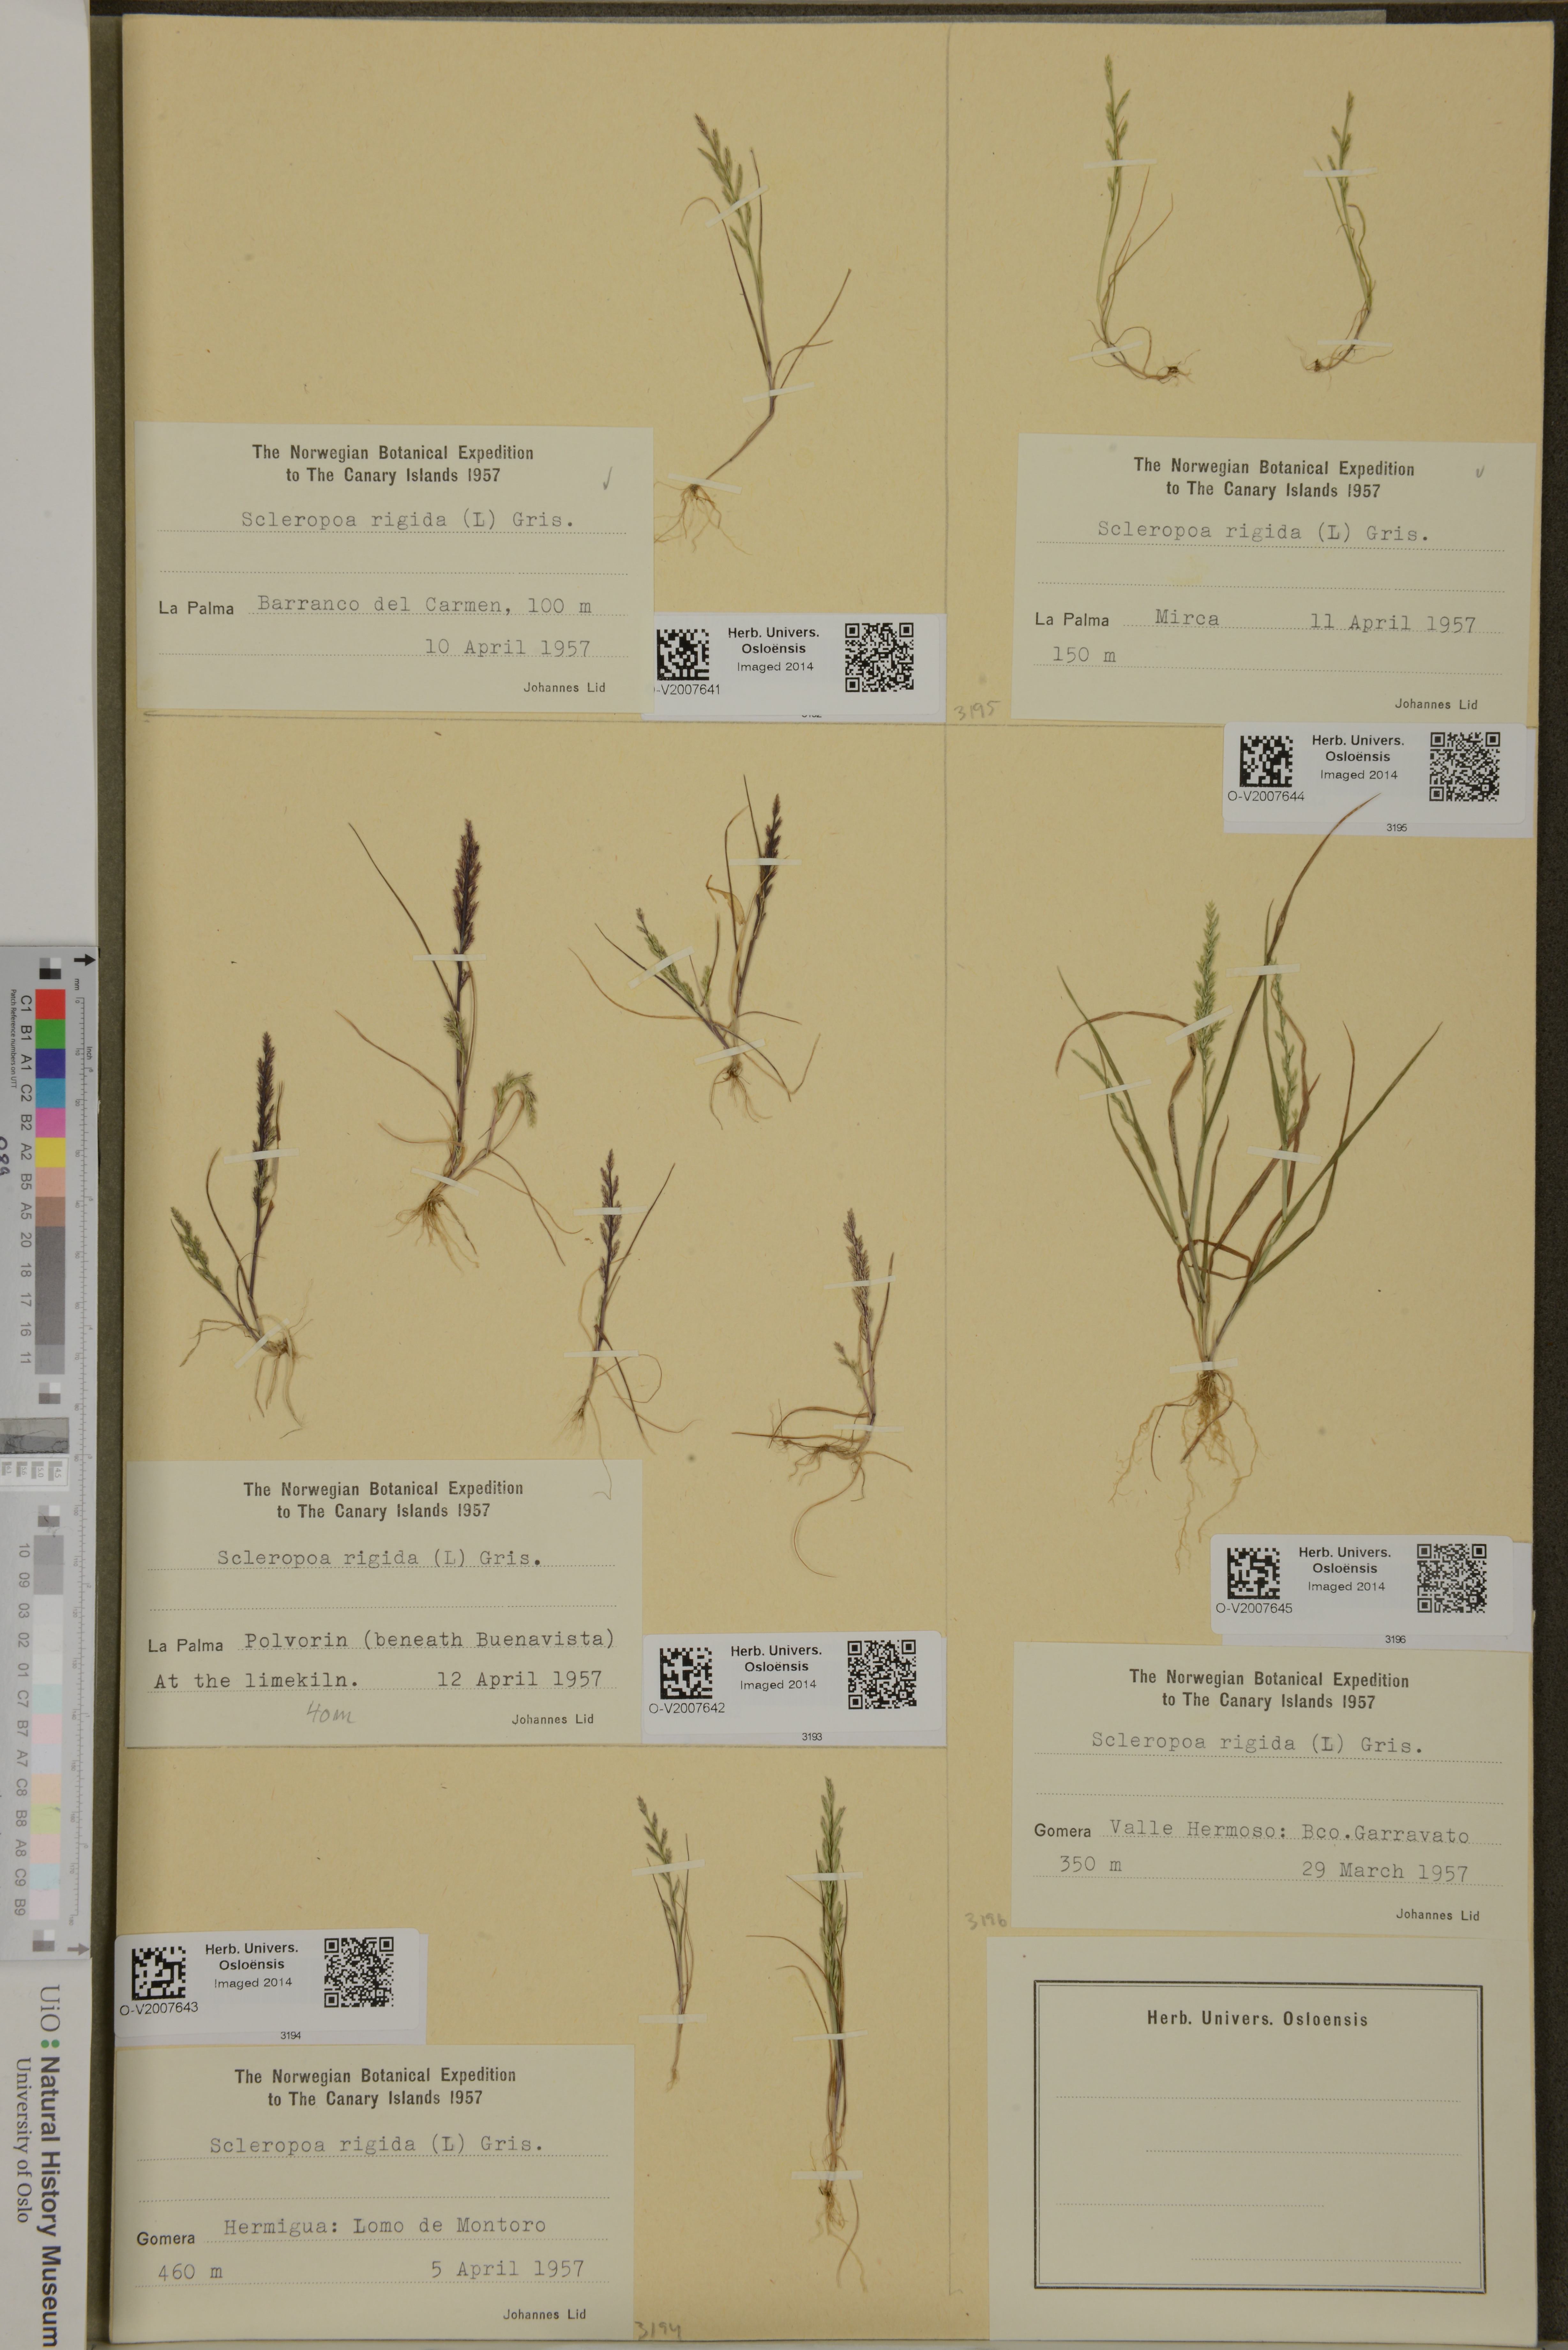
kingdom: Plantae
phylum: Tracheophyta
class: Liliopsida
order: Poales
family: Poaceae
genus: Catapodium
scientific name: Catapodium rigidum
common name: Fern-grass
